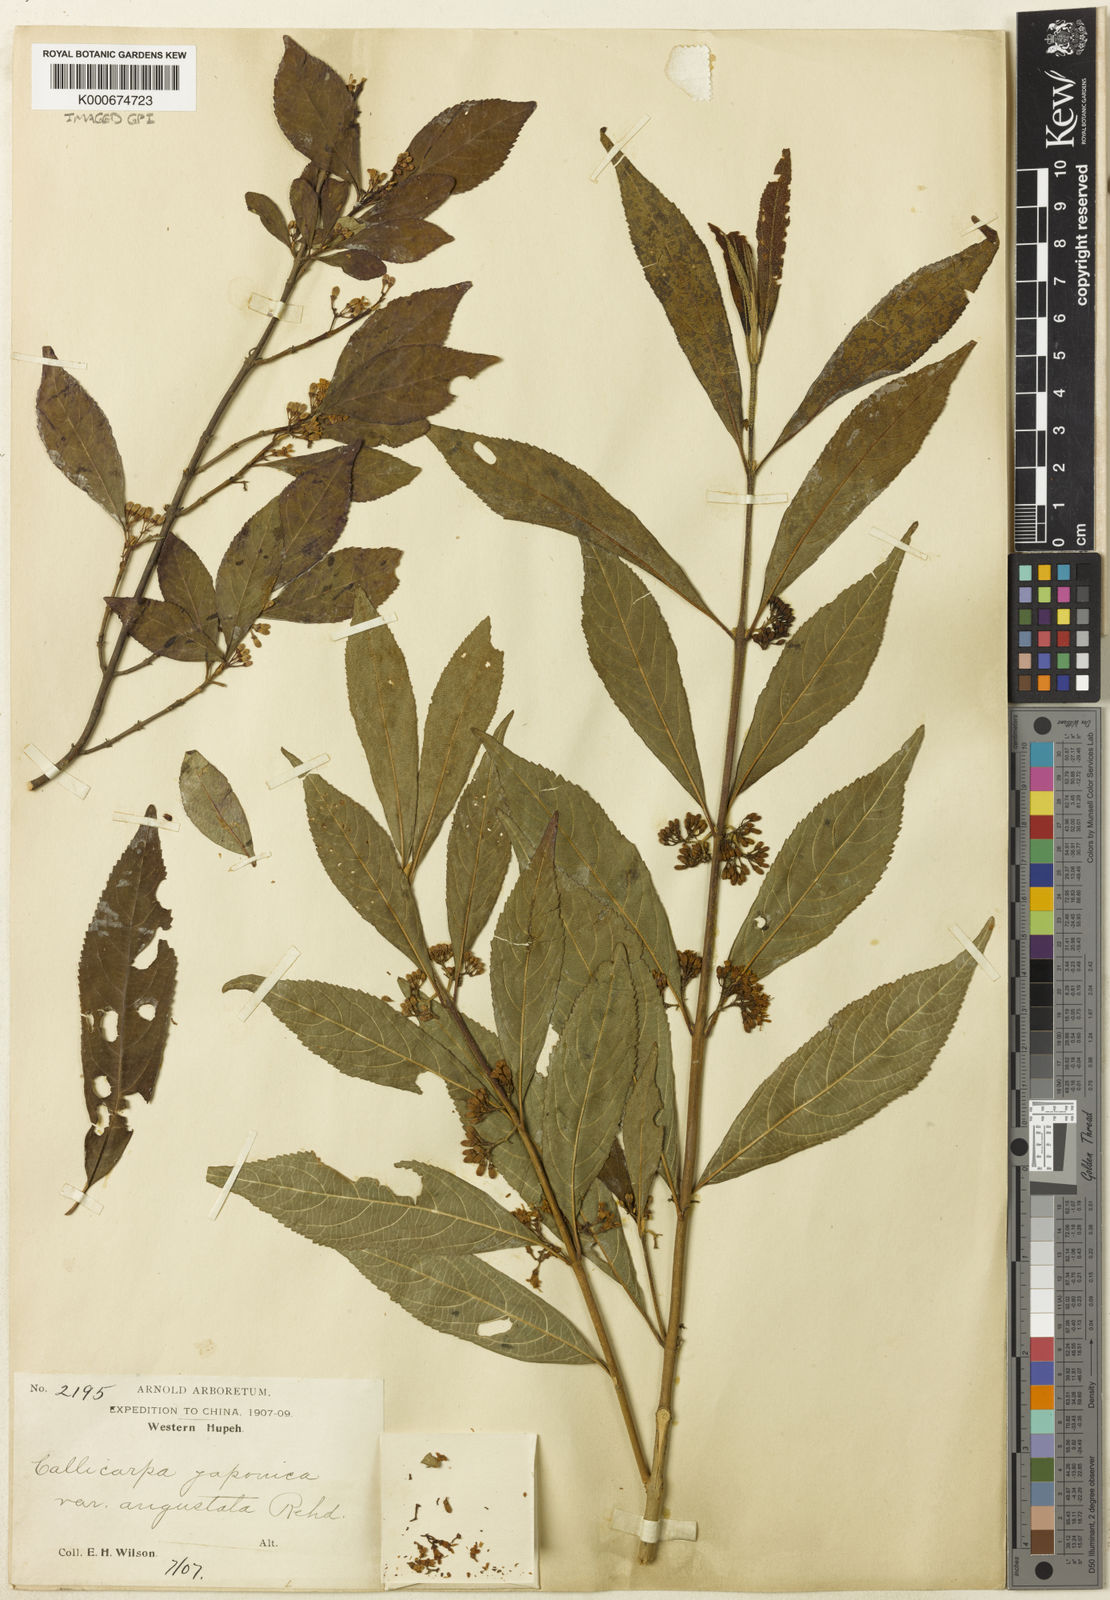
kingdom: Plantae
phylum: Tracheophyta
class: Magnoliopsida
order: Lamiales
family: Lamiaceae
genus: Callicarpa
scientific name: Callicarpa membranacea
